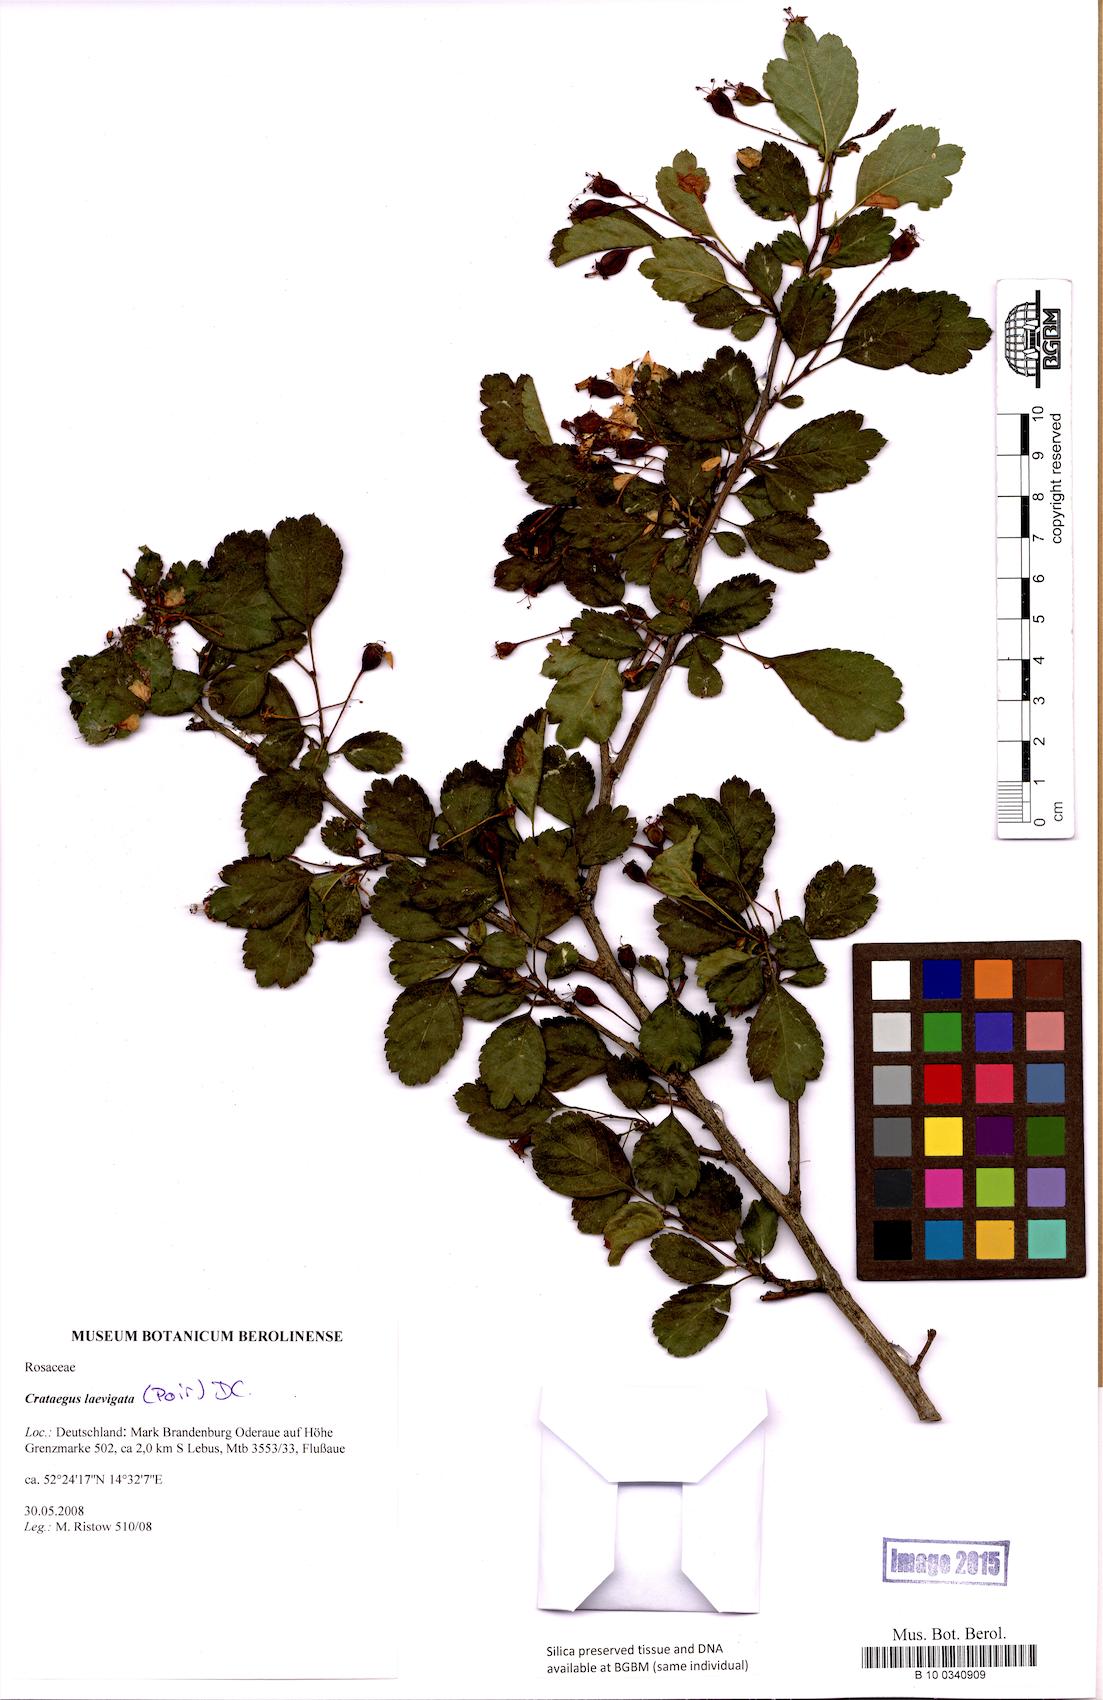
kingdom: Plantae
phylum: Tracheophyta
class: Magnoliopsida
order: Rosales
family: Rosaceae
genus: Crataegus
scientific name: Crataegus laevigata
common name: Midland hawthorn
